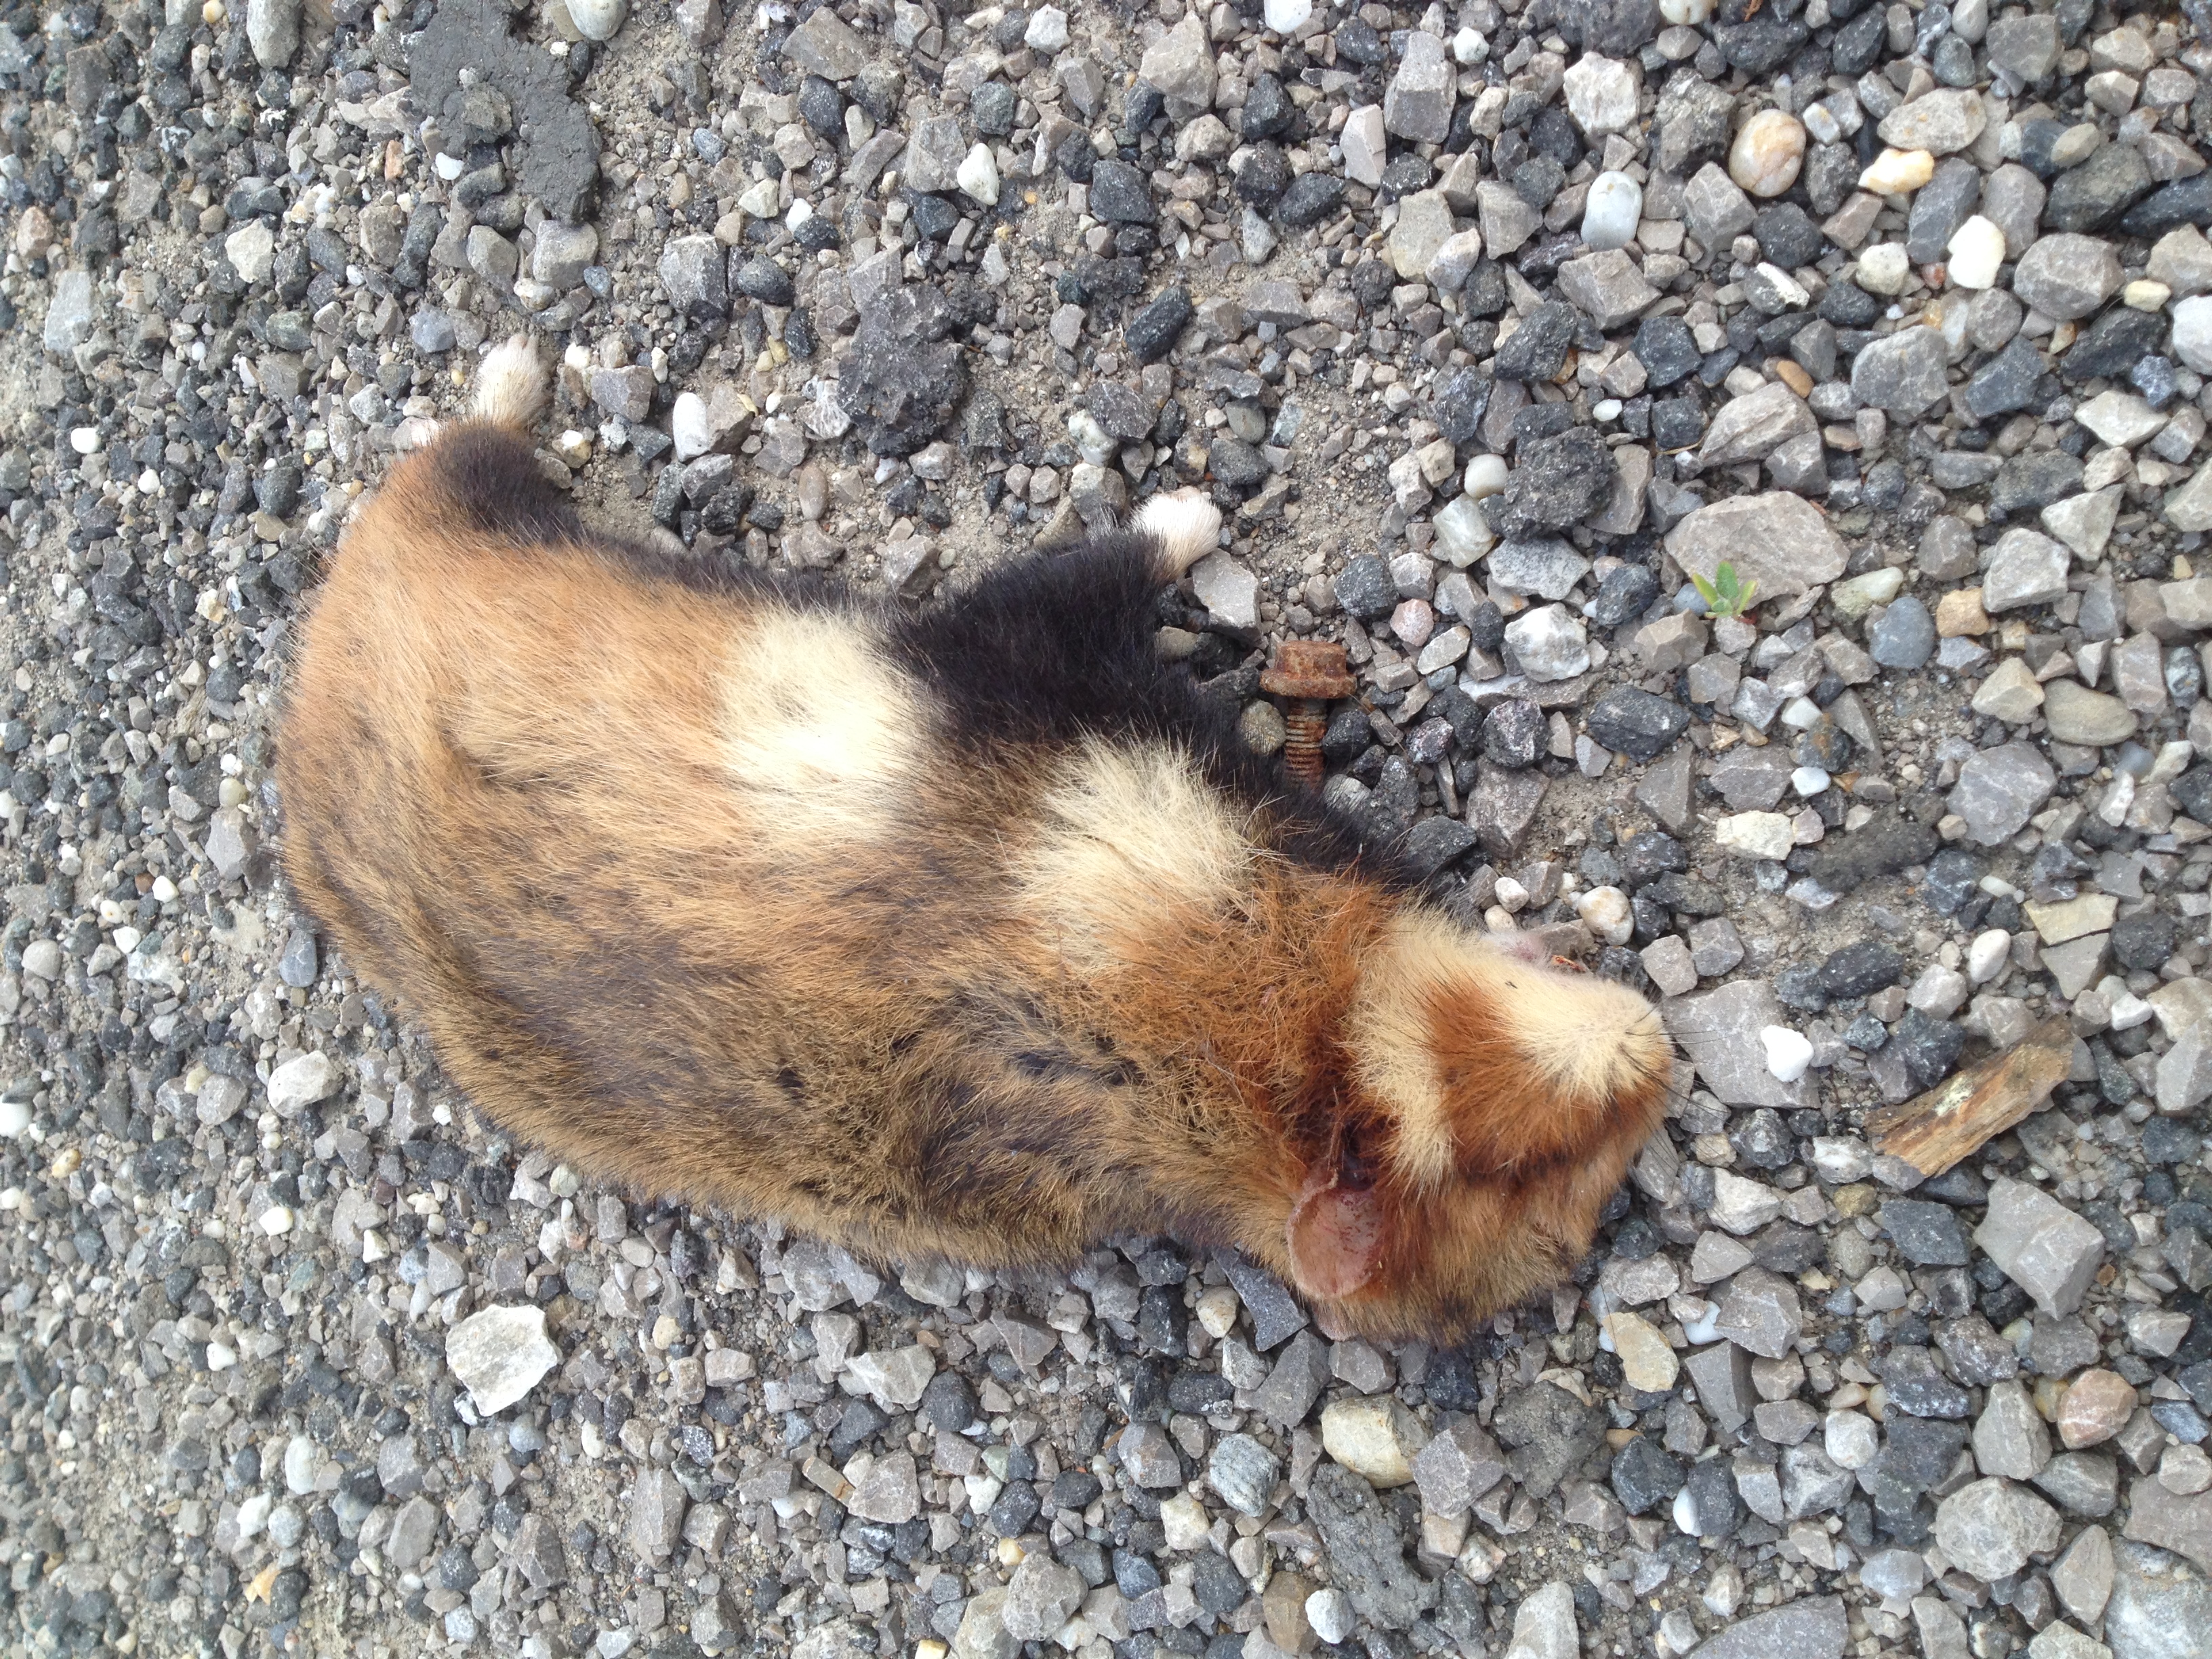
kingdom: Animalia
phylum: Chordata
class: Mammalia
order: Rodentia
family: Cricetidae
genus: Cricetus
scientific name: Cricetus cricetus
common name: Common hamster
